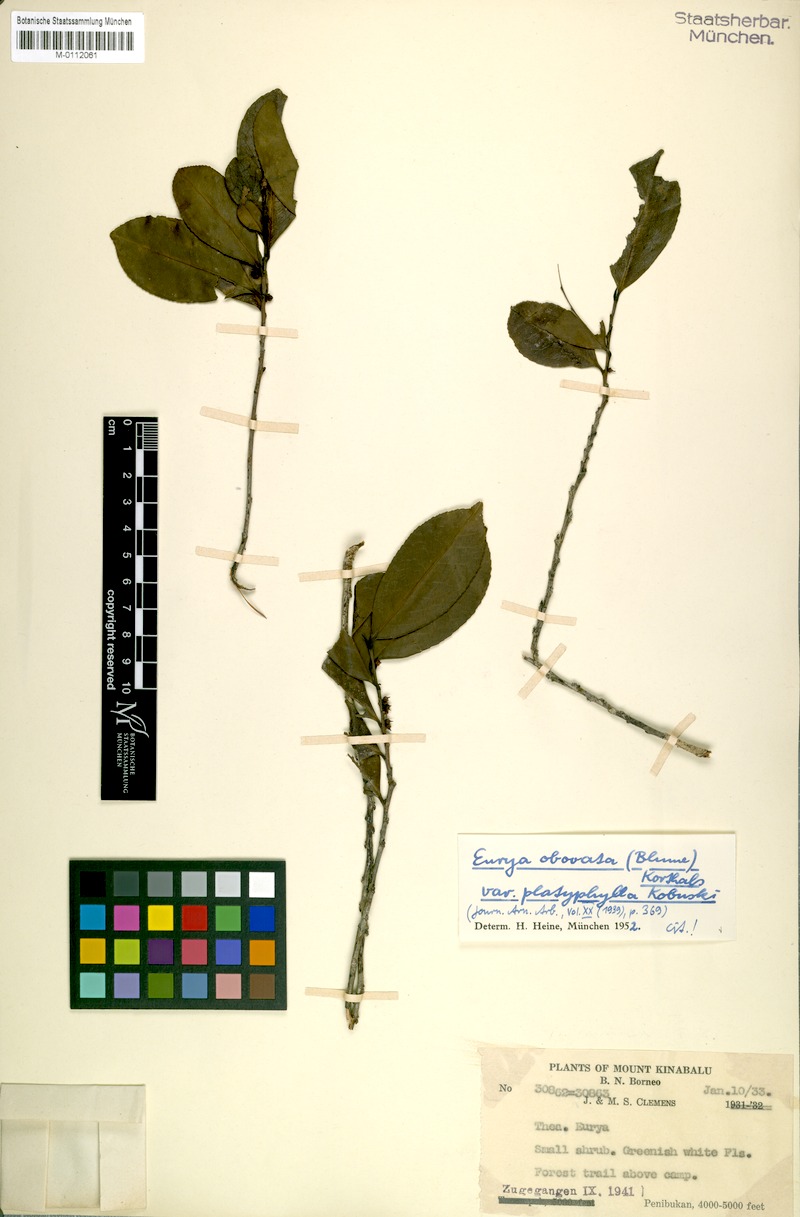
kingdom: Plantae
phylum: Tracheophyta
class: Magnoliopsida
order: Ericales
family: Pentaphylacaceae
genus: Eurya
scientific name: Eurya obovata
